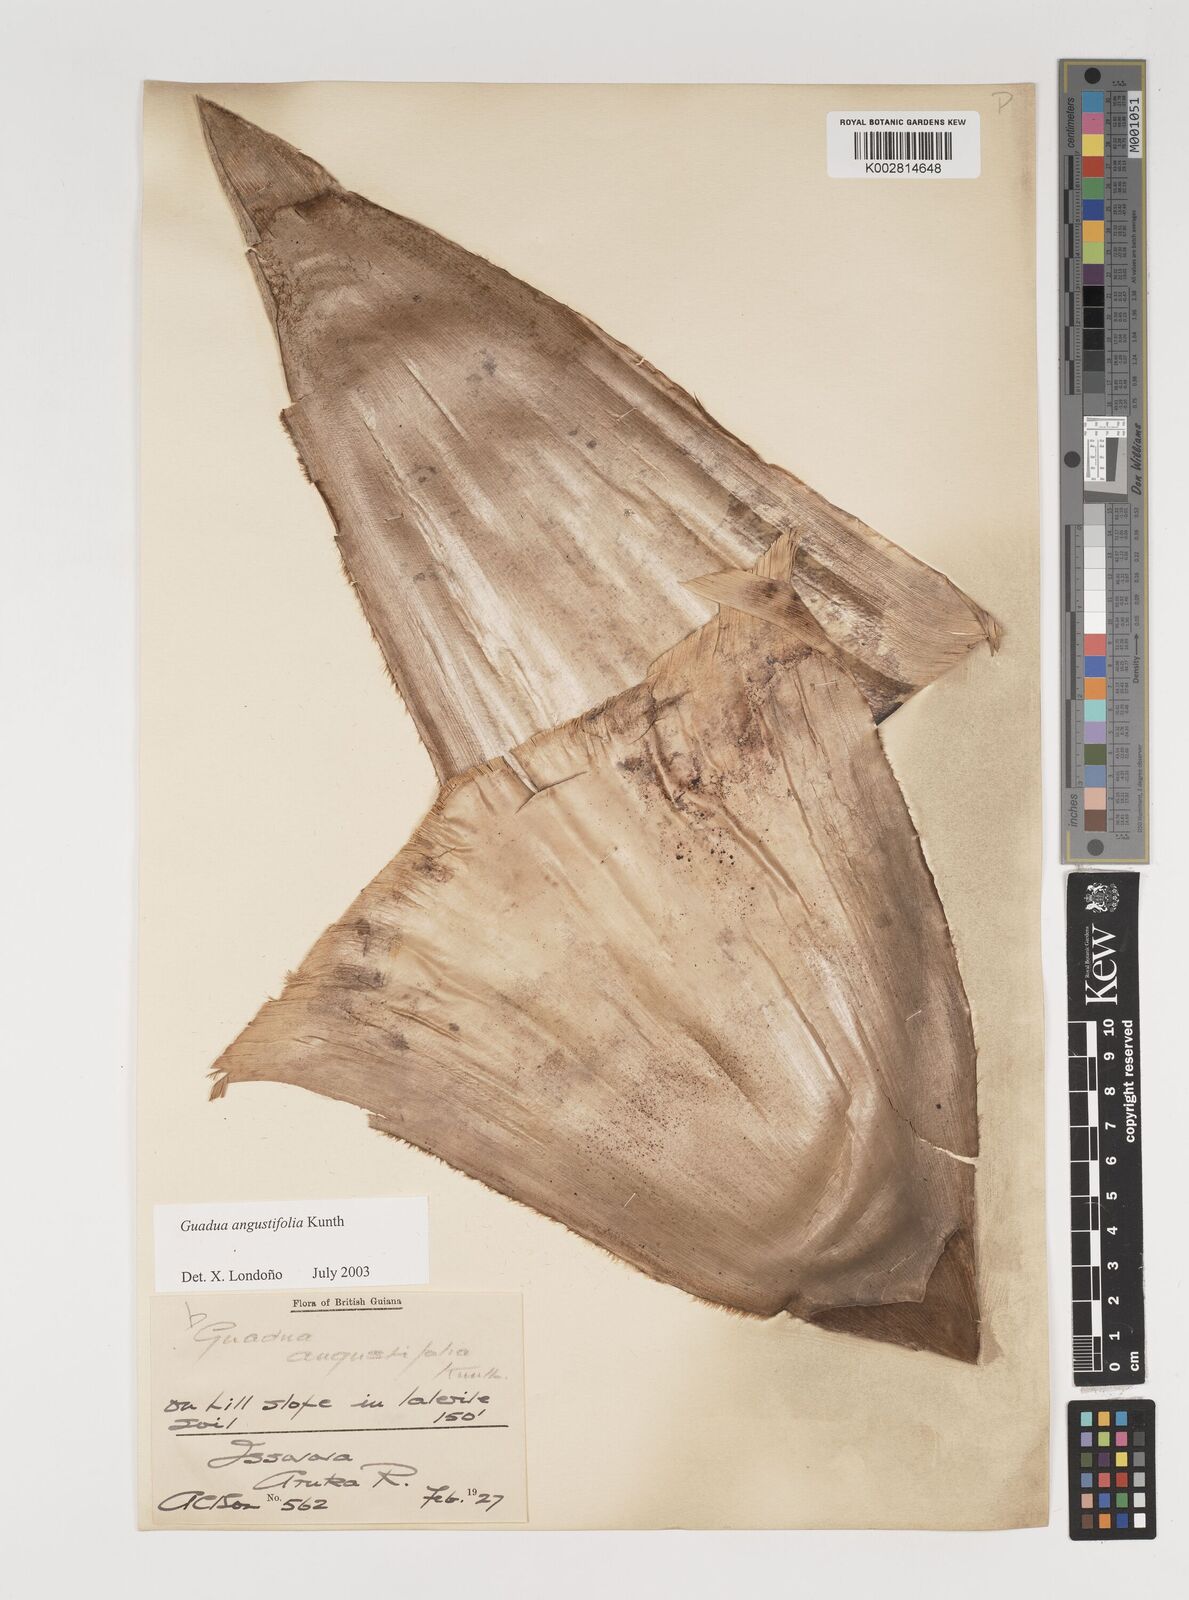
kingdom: Plantae
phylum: Tracheophyta
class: Liliopsida
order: Poales
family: Poaceae
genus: Guadua
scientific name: Guadua angustifolia
